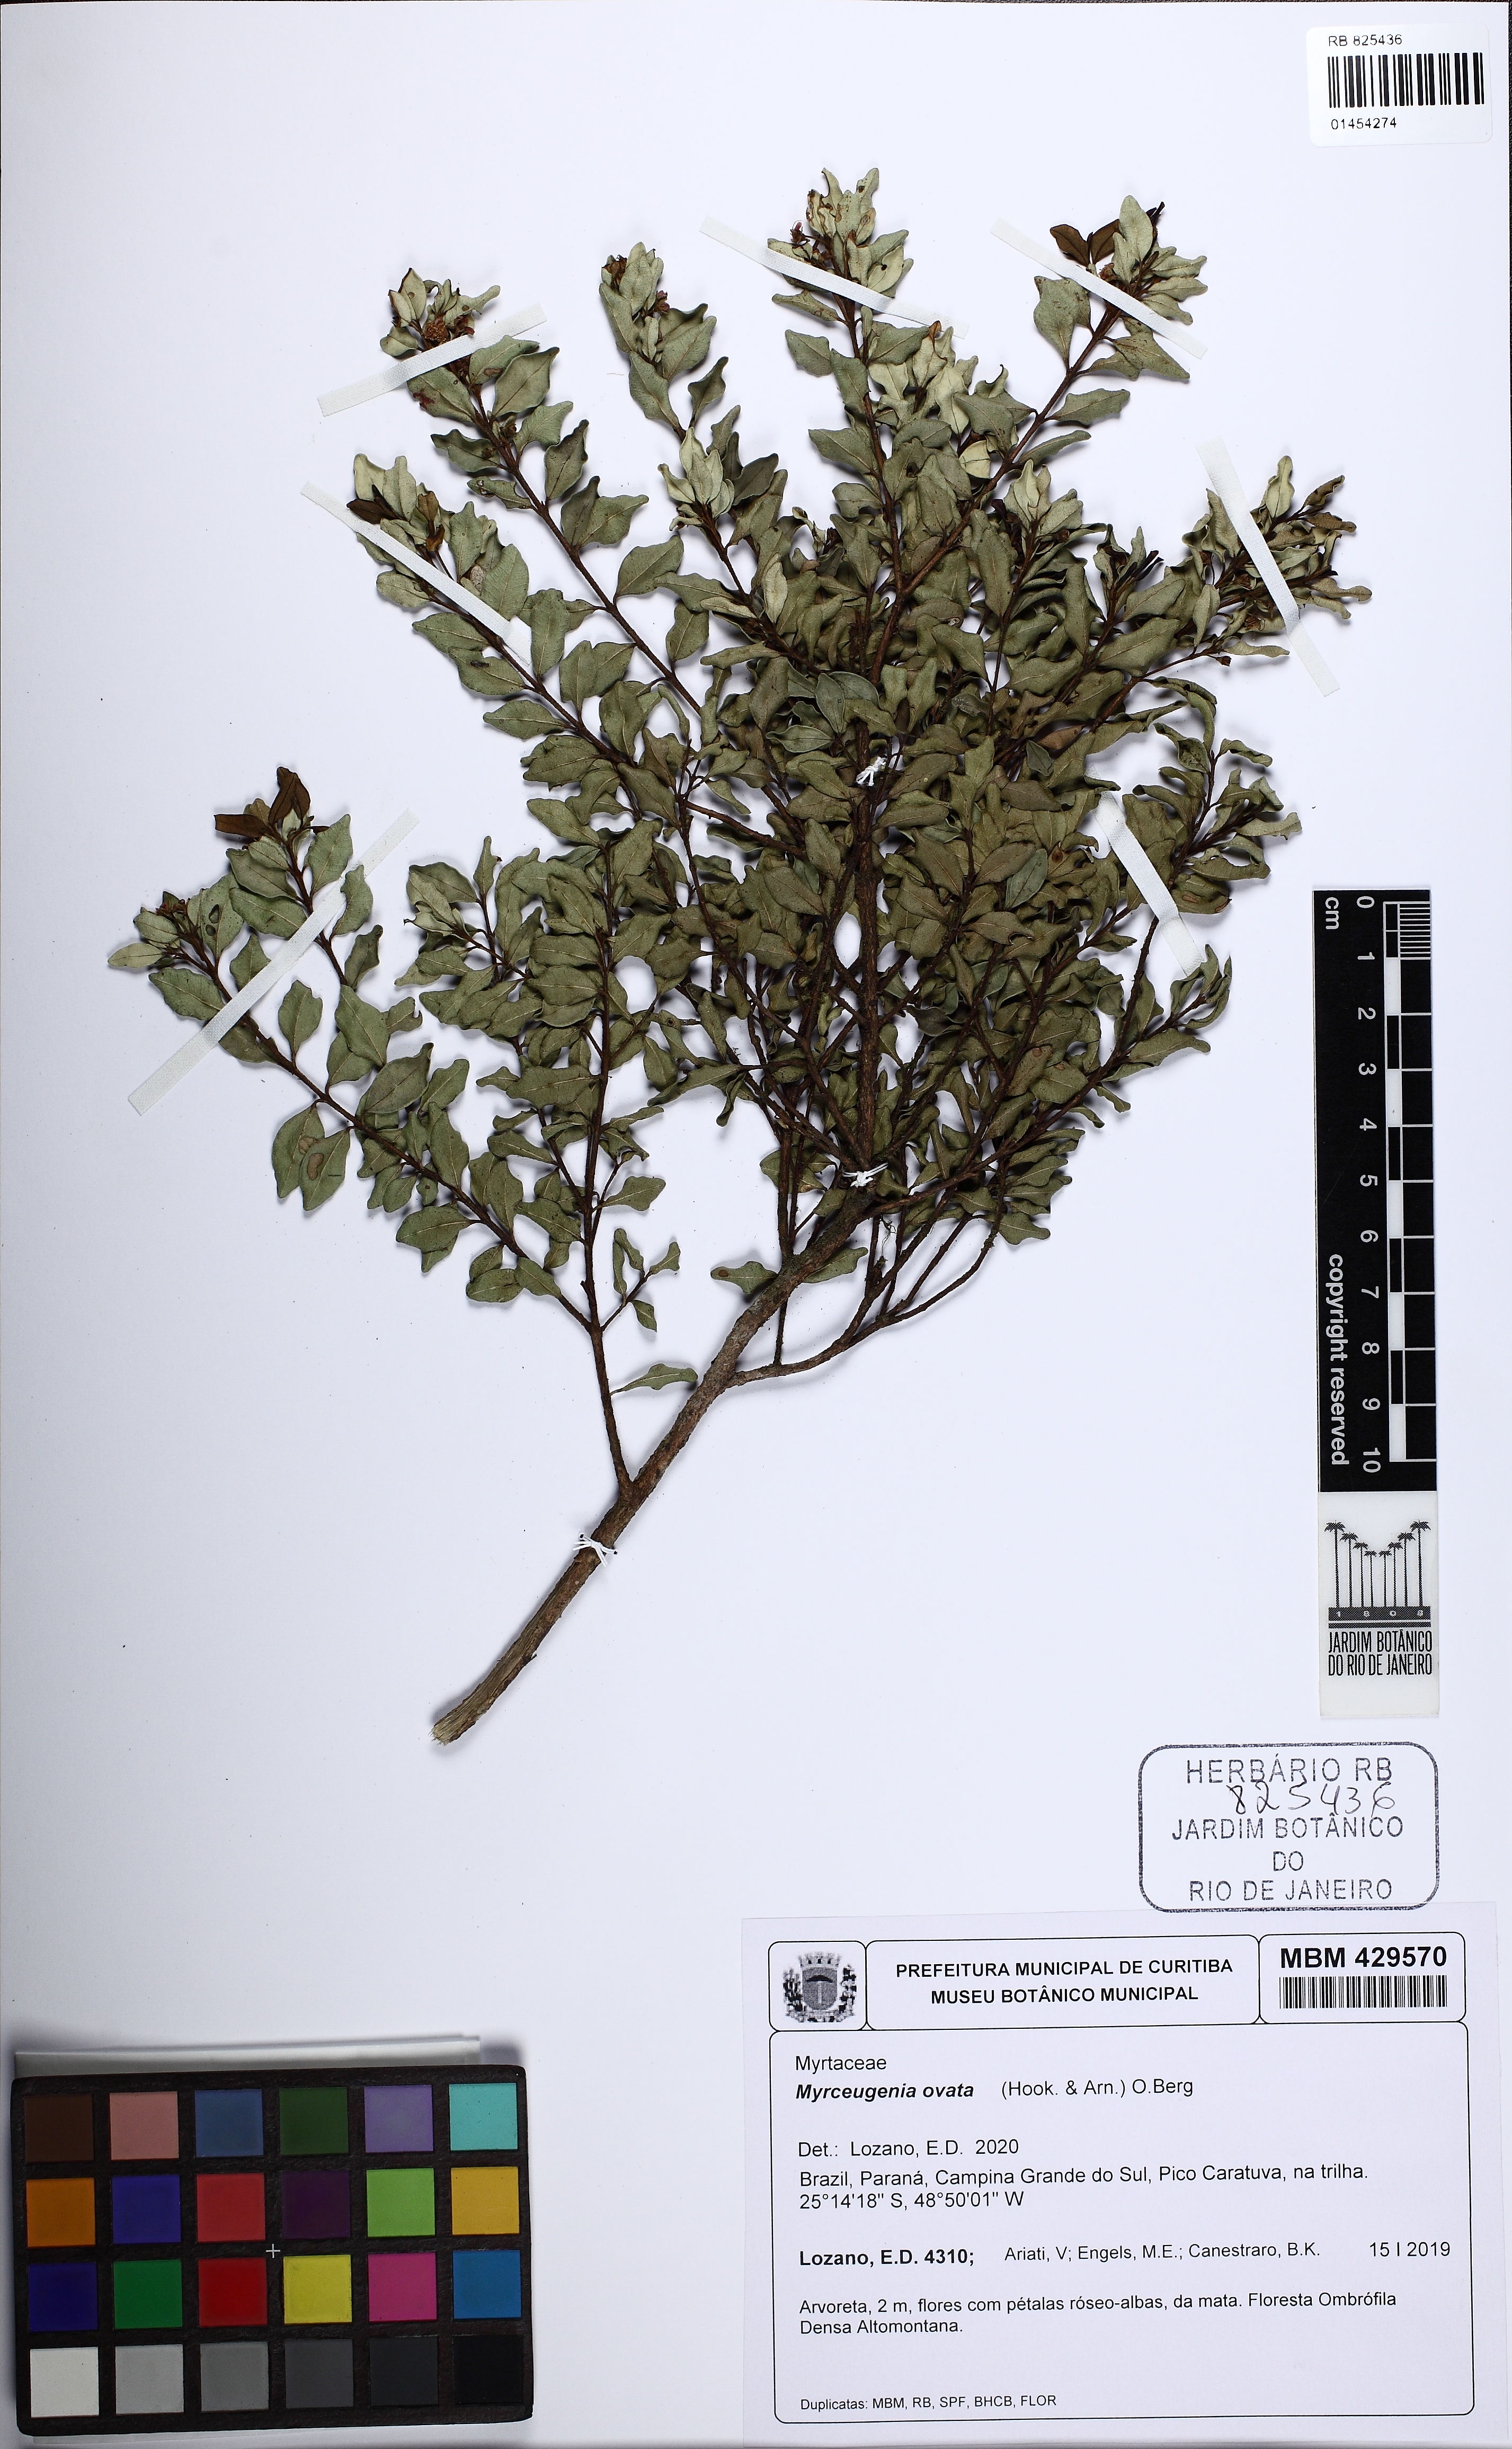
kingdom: Plantae
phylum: Tracheophyta
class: Magnoliopsida
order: Myrtales
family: Myrtaceae
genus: Myrceugenia
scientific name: Myrceugenia ovata
